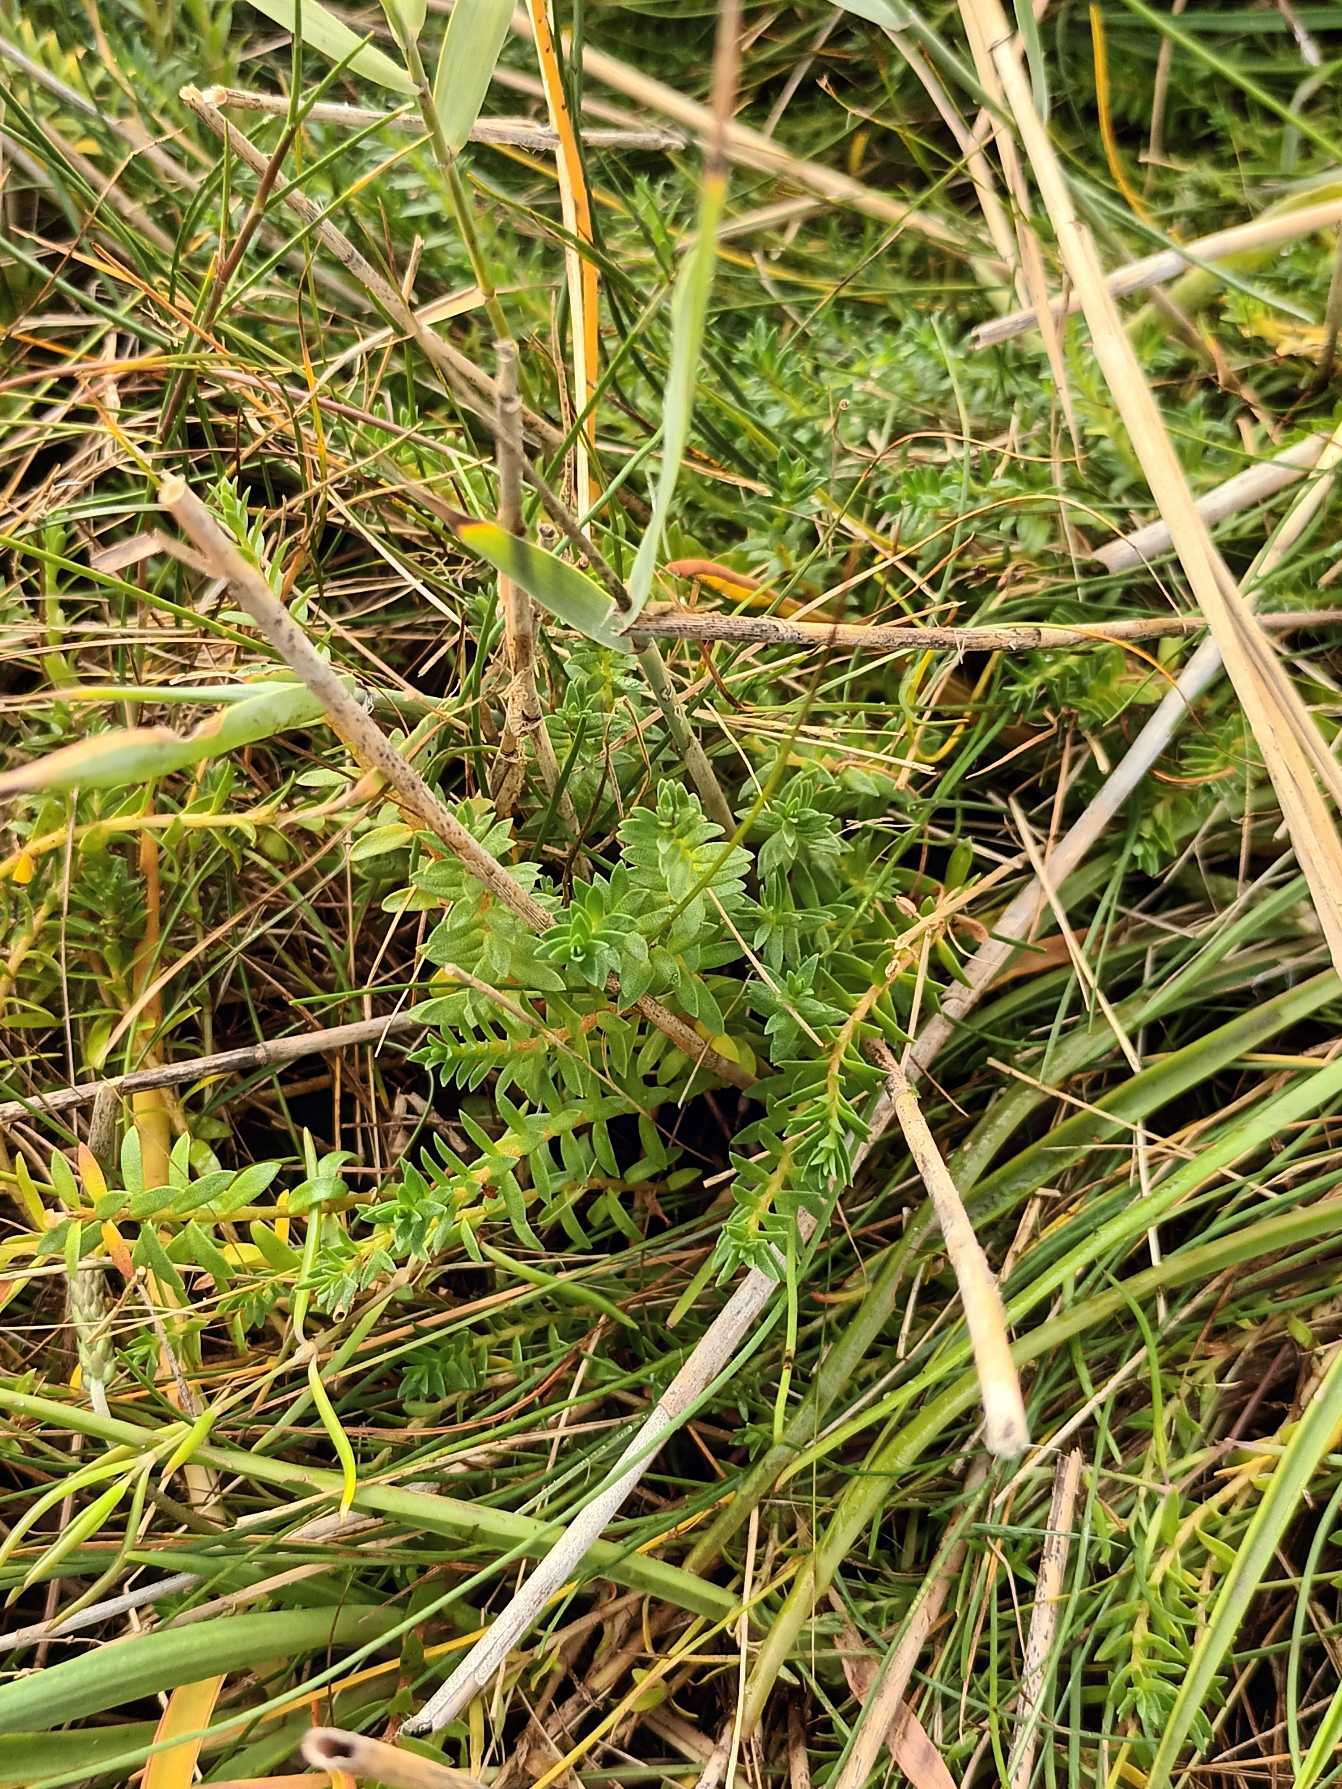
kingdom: Plantae
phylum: Tracheophyta
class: Magnoliopsida
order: Ericales
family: Primulaceae
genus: Lysimachia
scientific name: Lysimachia maritima
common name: Sandkryb
